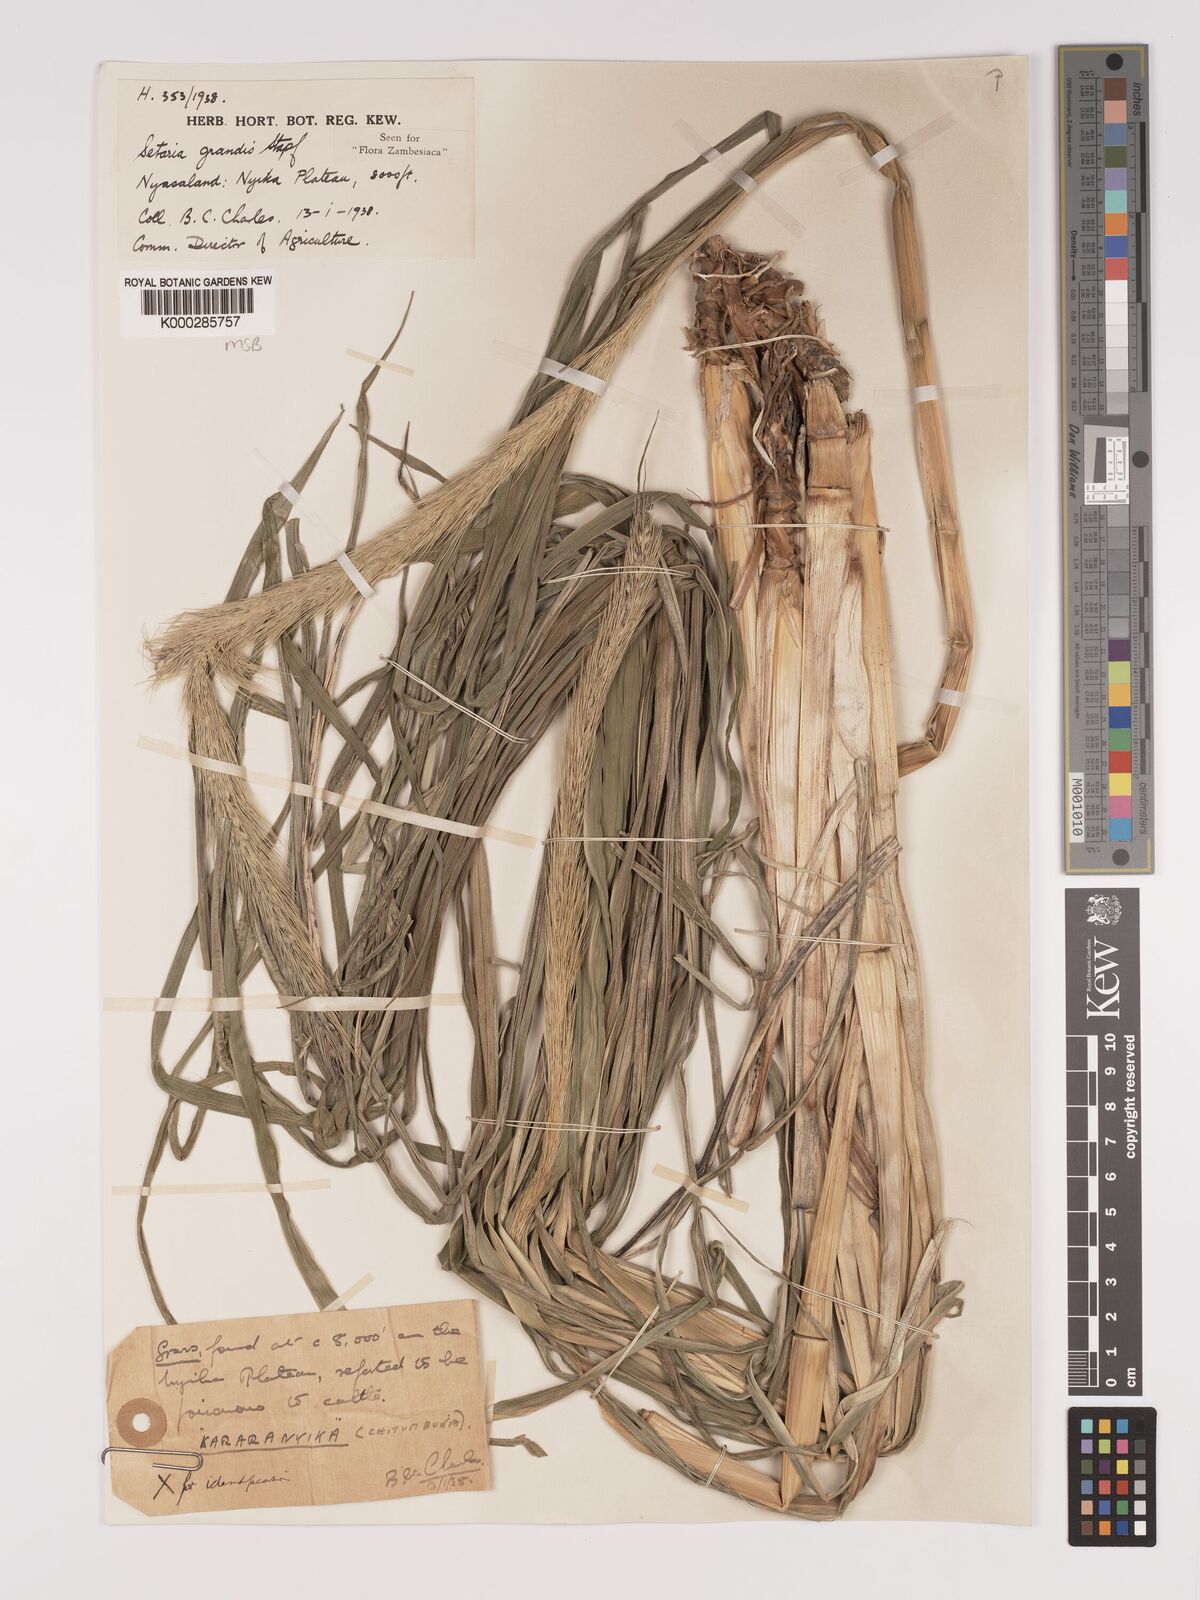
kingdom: Plantae
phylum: Tracheophyta
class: Liliopsida
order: Poales
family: Poaceae
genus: Setaria
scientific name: Setaria grandis
